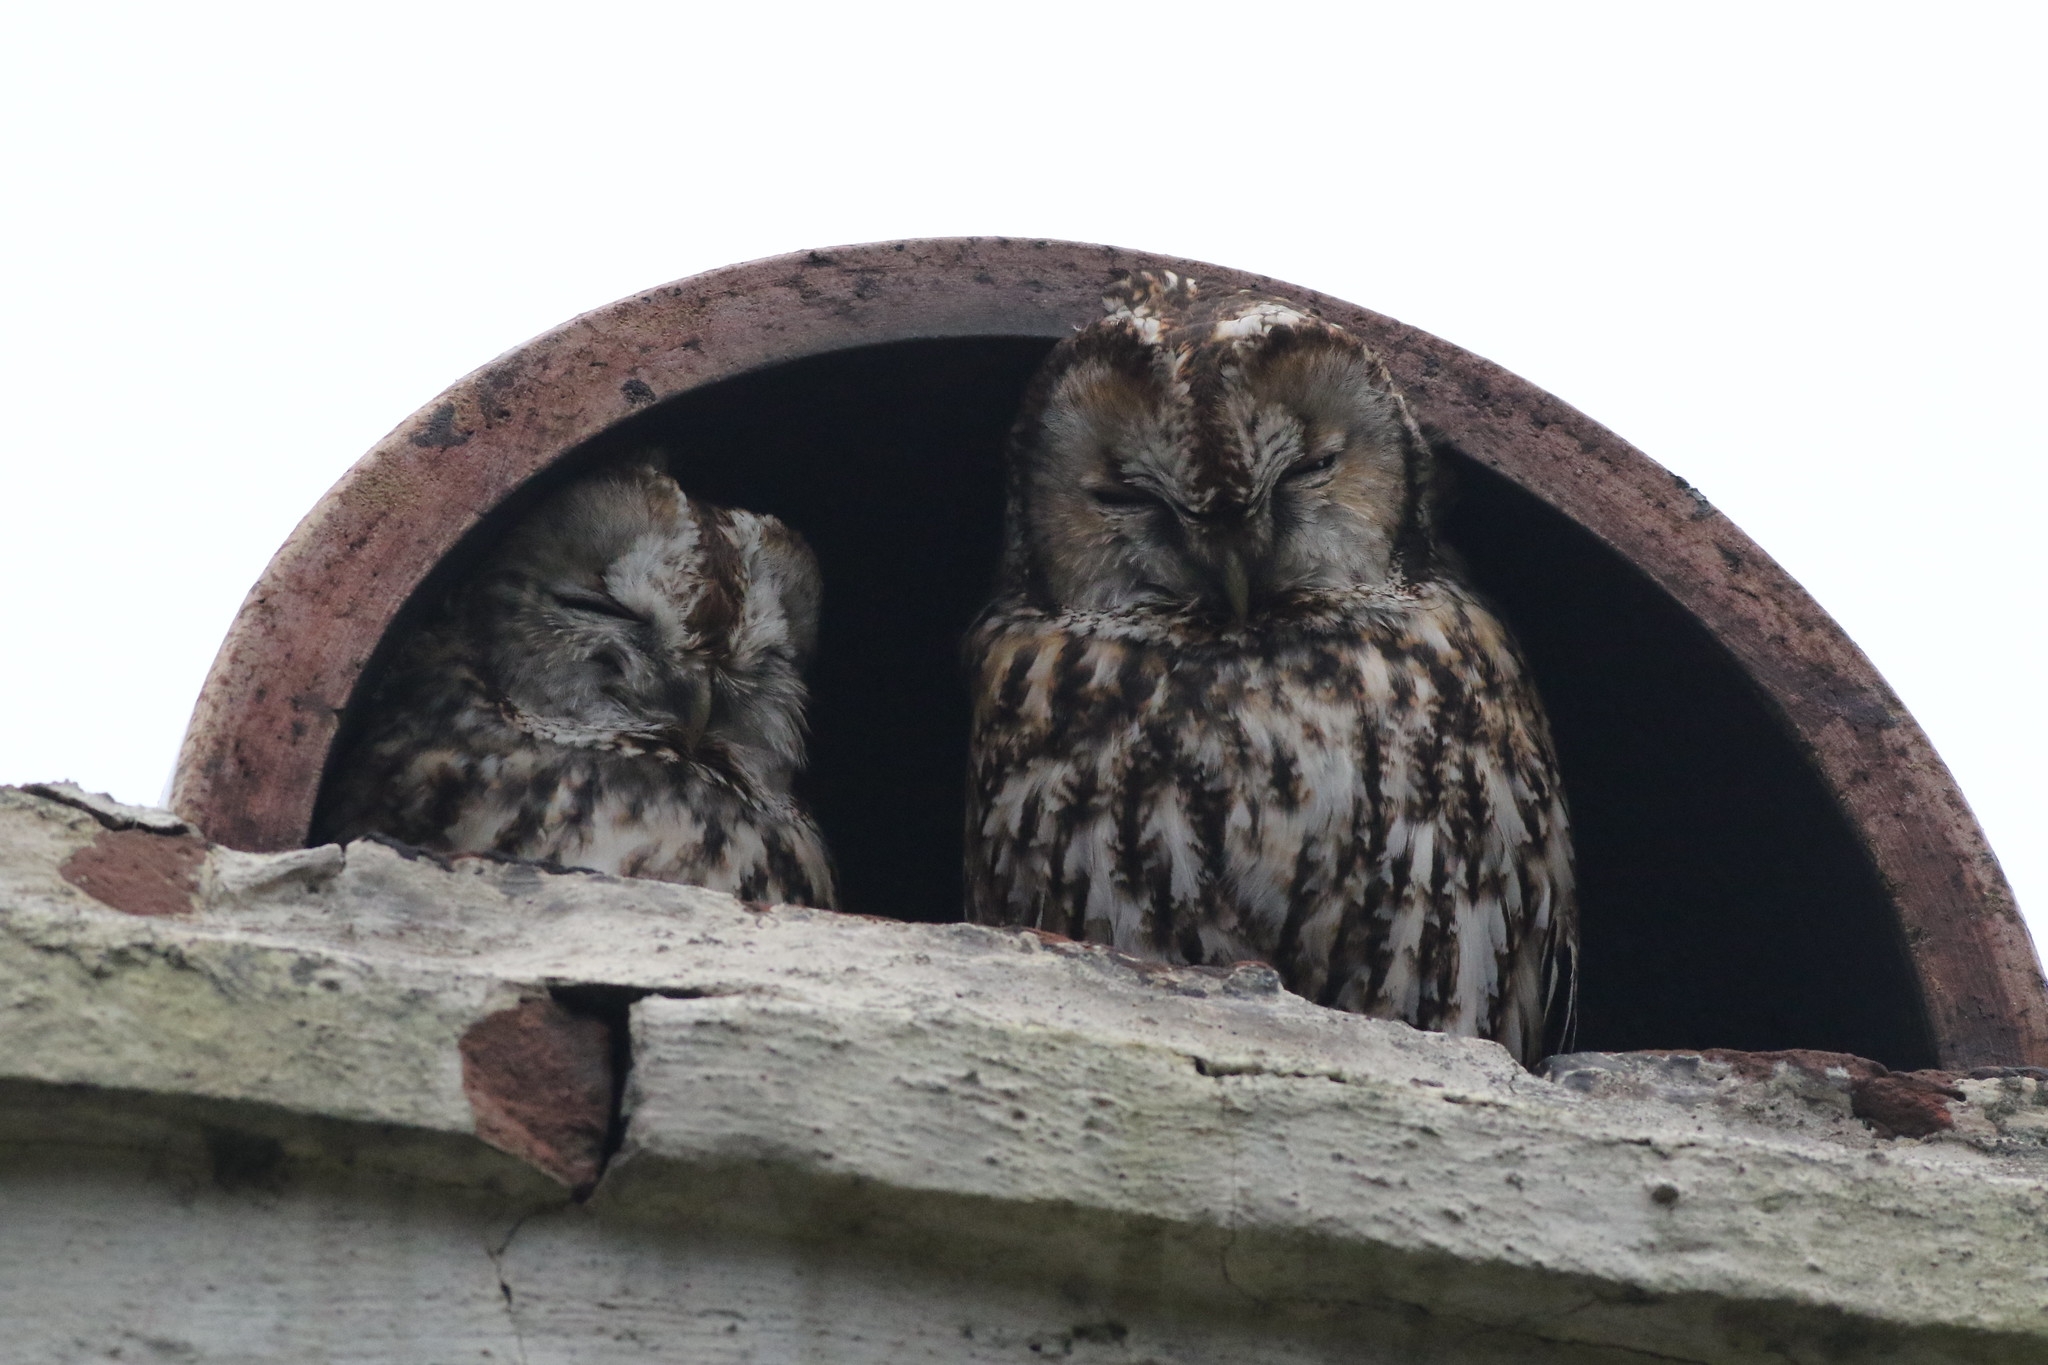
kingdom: Animalia
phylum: Chordata
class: Aves
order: Strigiformes
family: Strigidae
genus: Strix
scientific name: Strix aluco
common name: Natugle
